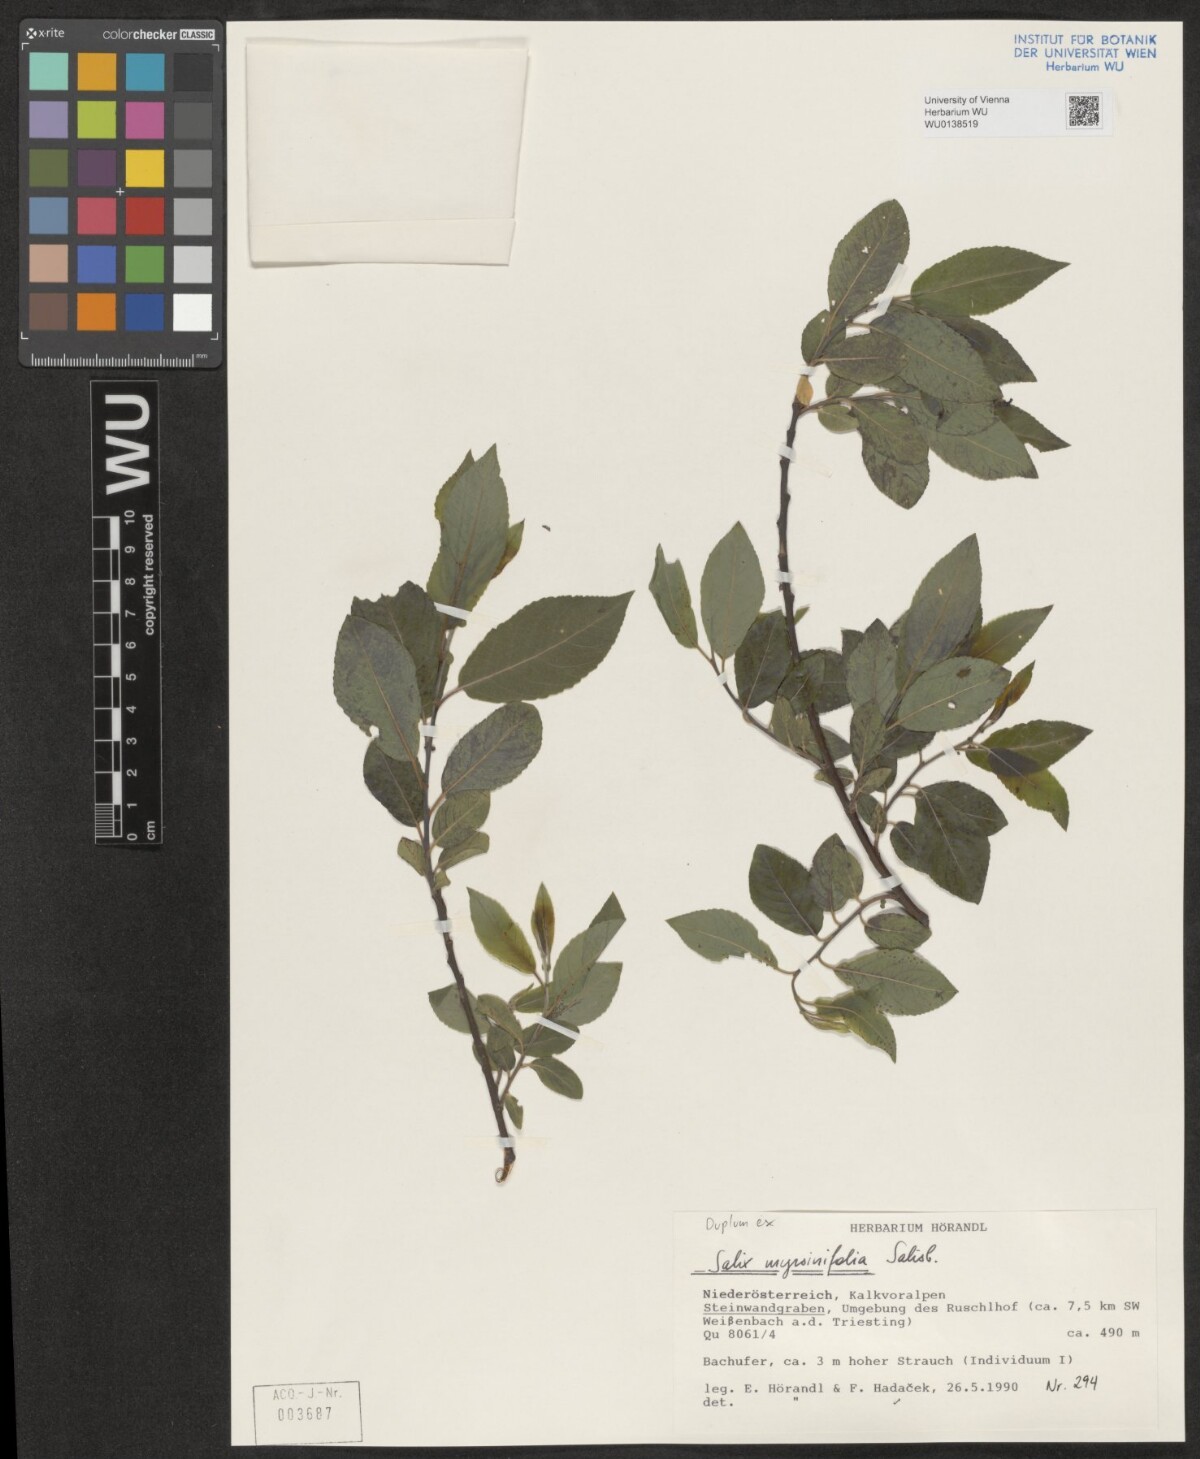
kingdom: Plantae
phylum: Tracheophyta
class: Magnoliopsida
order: Malpighiales
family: Salicaceae
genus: Salix
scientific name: Salix myrsinifolia
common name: Dark-leaved willow
